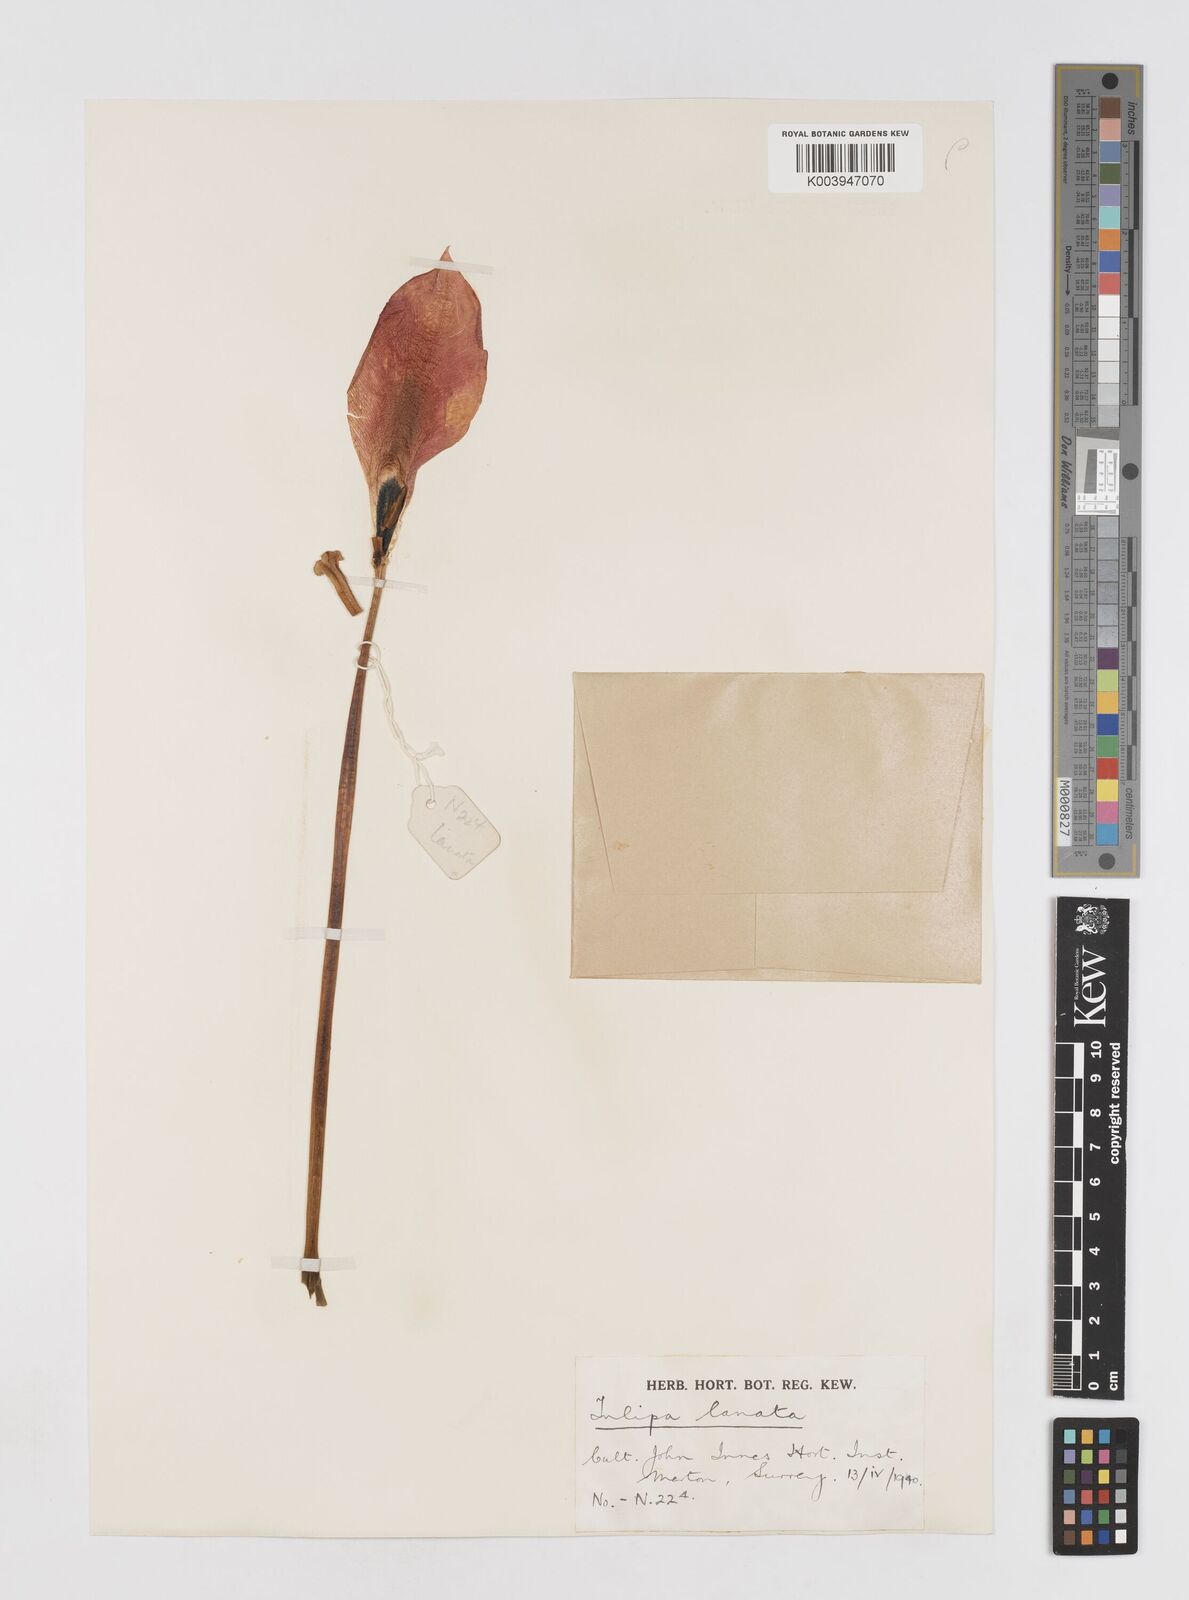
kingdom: Plantae
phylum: Tracheophyta
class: Liliopsida
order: Liliales
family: Liliaceae
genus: Tulipa
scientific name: Tulipa lanata
